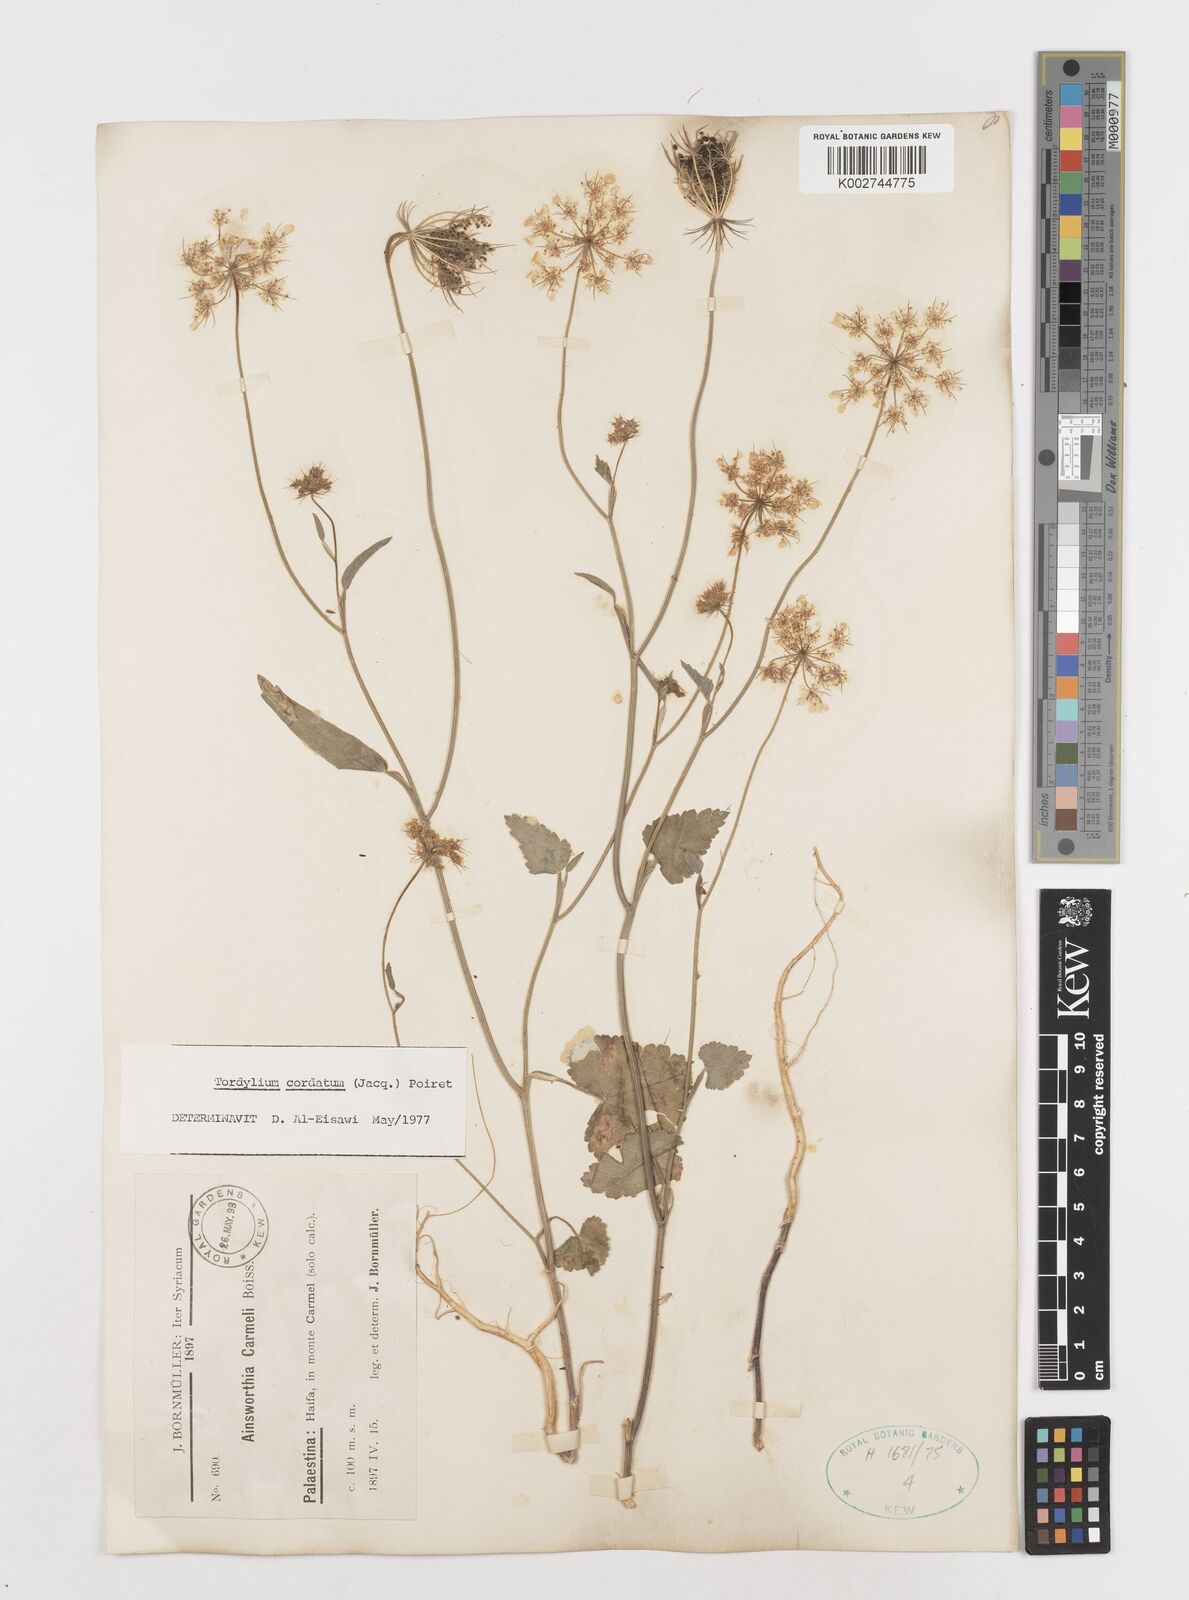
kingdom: Plantae
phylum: Tracheophyta
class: Magnoliopsida
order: Apiales
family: Apiaceae
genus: Ainsworthia
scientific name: Ainsworthia trachycarpa
